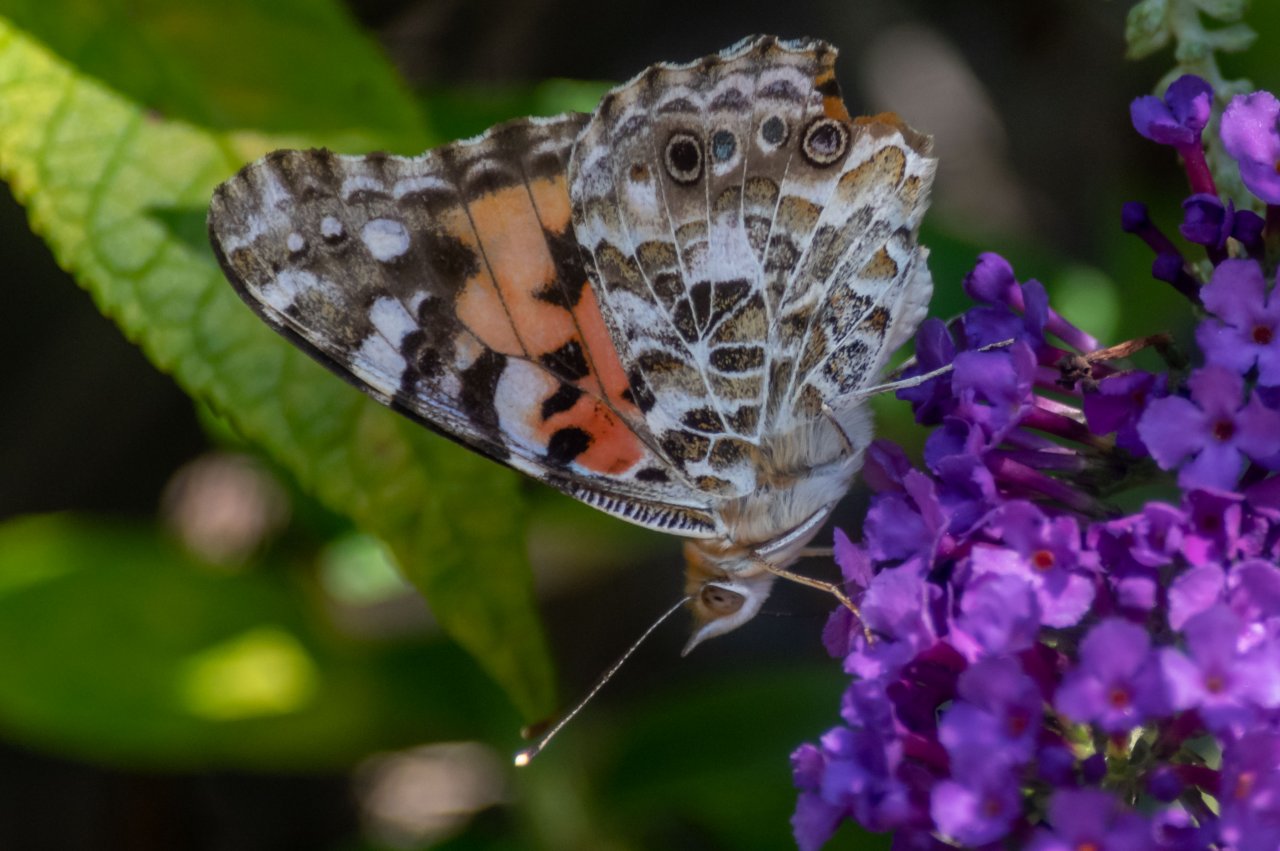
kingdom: Animalia
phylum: Arthropoda
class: Insecta
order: Lepidoptera
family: Nymphalidae
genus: Vanessa
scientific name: Vanessa cardui
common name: Painted Lady
